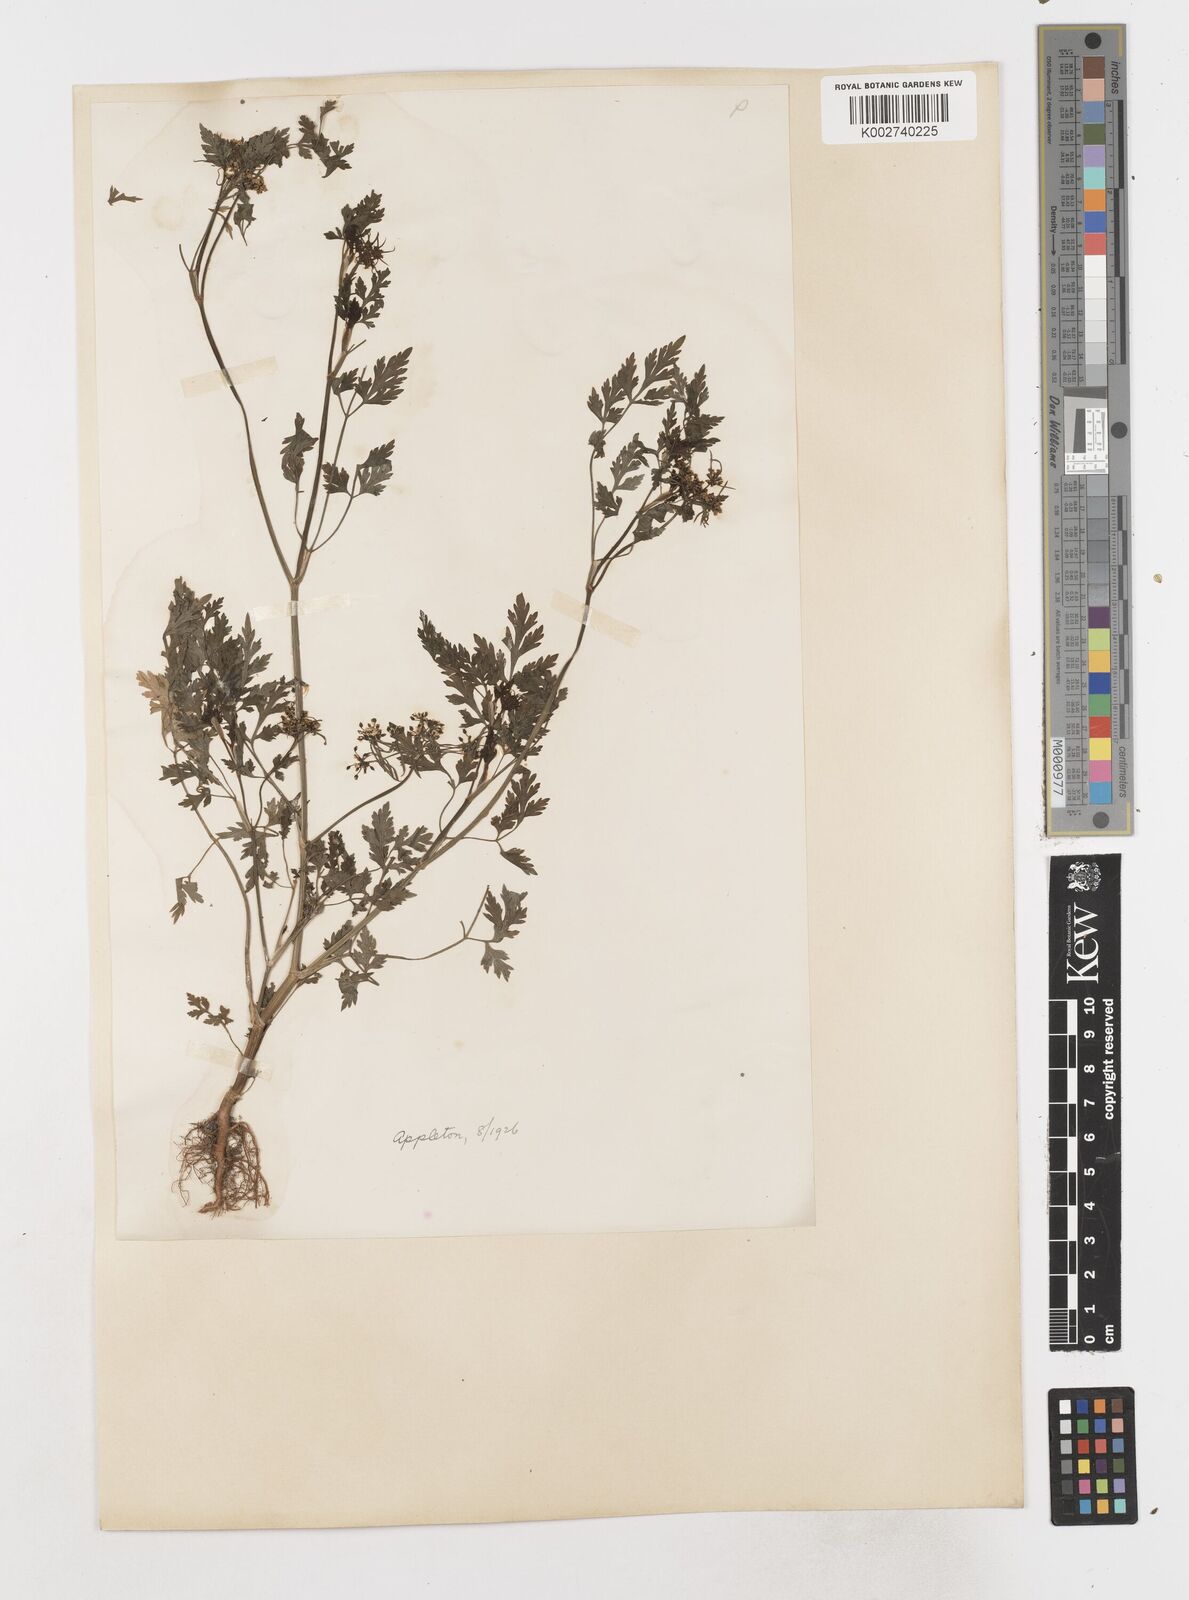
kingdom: Plantae
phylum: Tracheophyta
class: Magnoliopsida
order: Apiales
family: Apiaceae
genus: Aethusa
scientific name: Aethusa cynapium
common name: Fool's parsley
